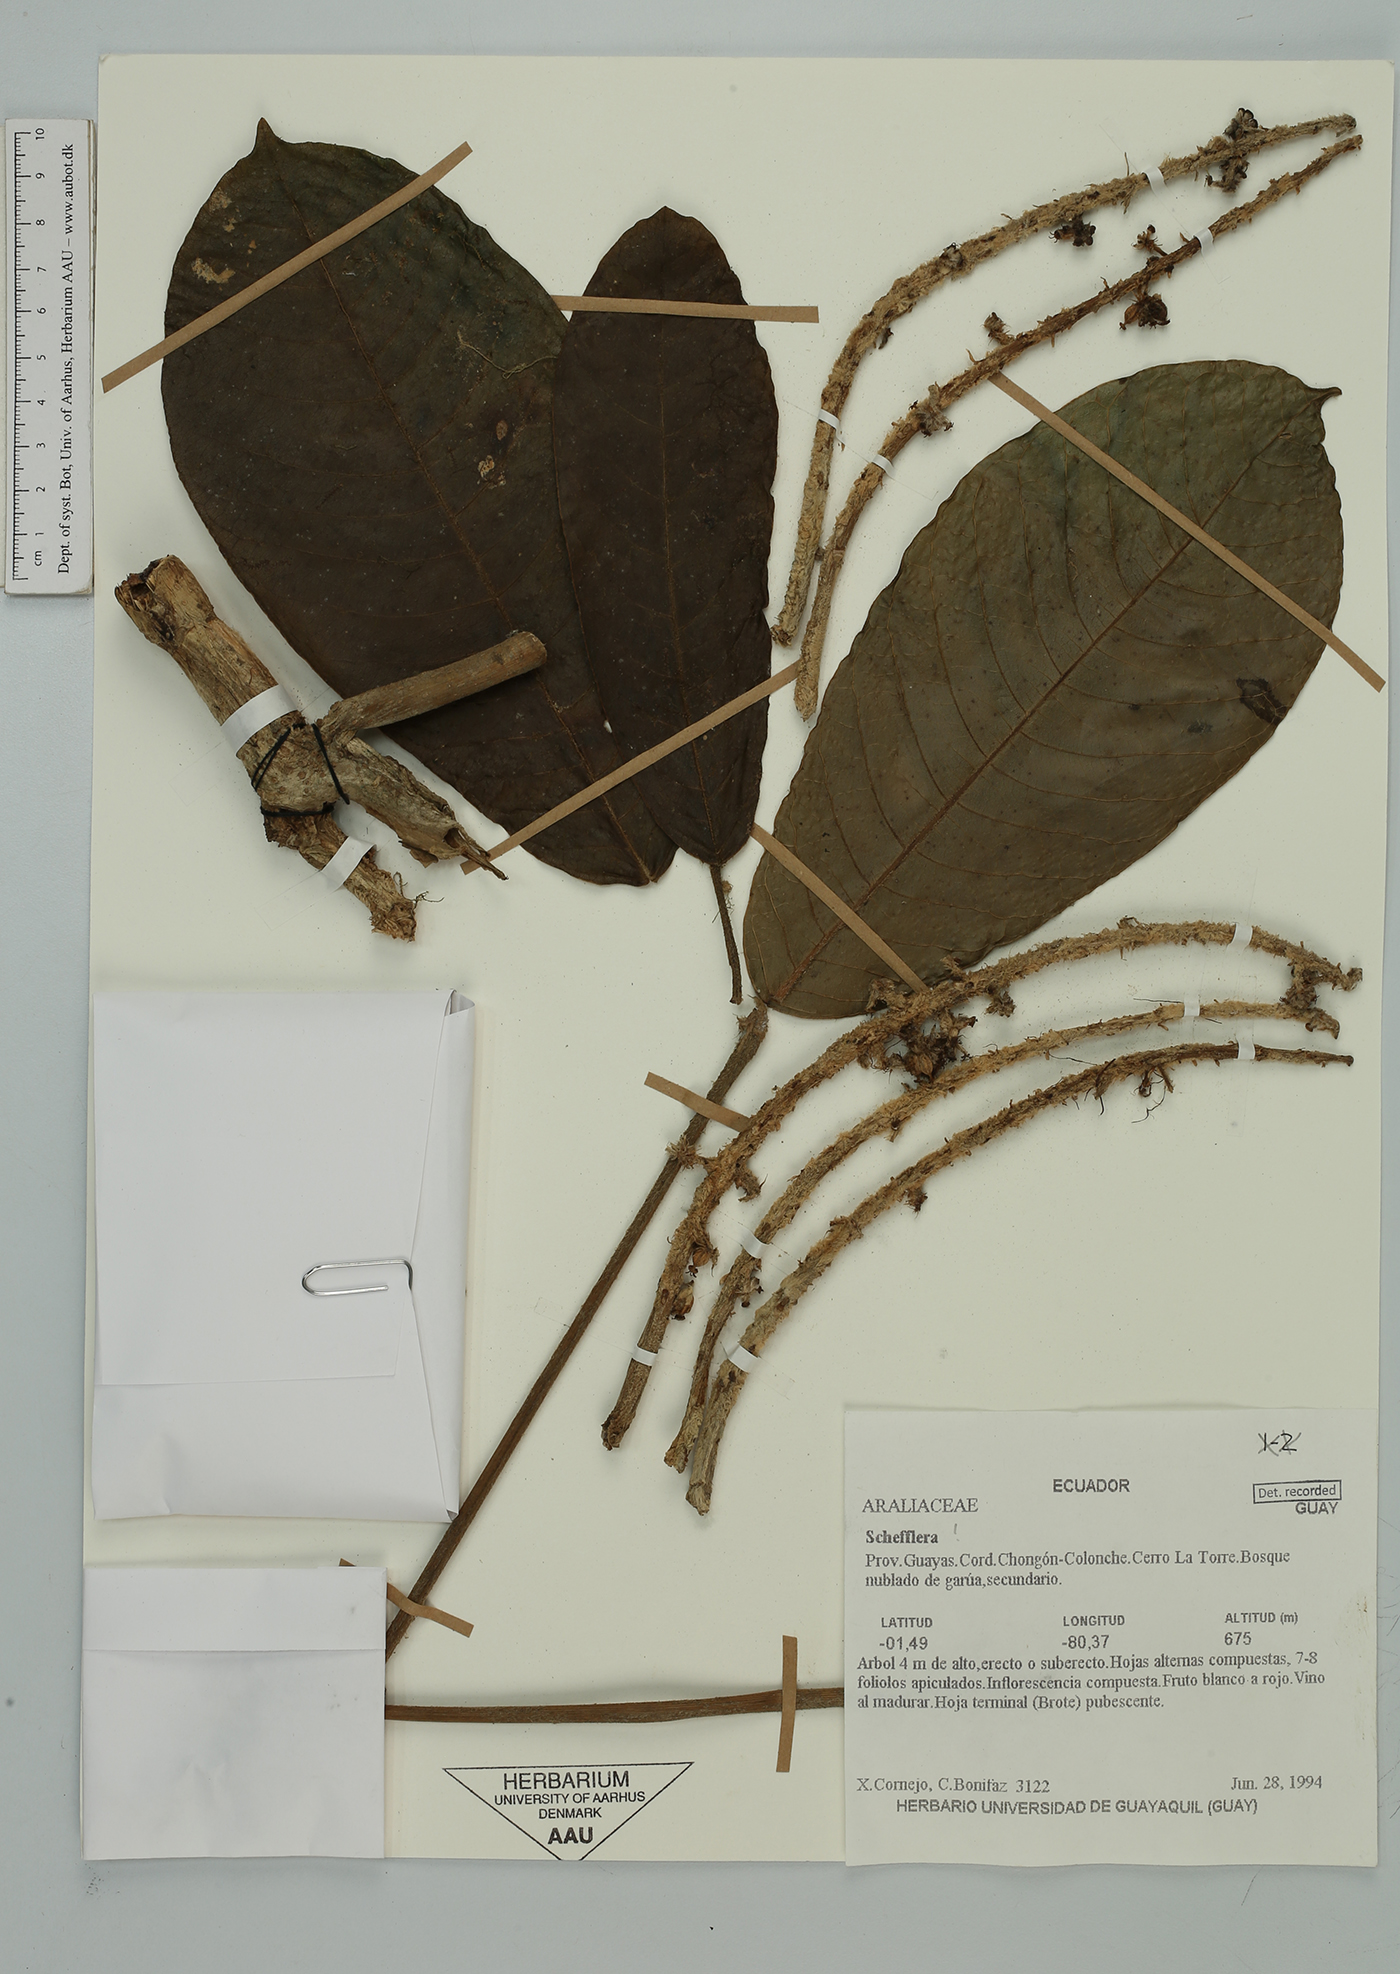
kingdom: Plantae
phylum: Tracheophyta
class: Magnoliopsida
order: Apiales
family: Araliaceae
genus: Sciodaphyllum
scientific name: Sciodaphyllum lasiogyne
